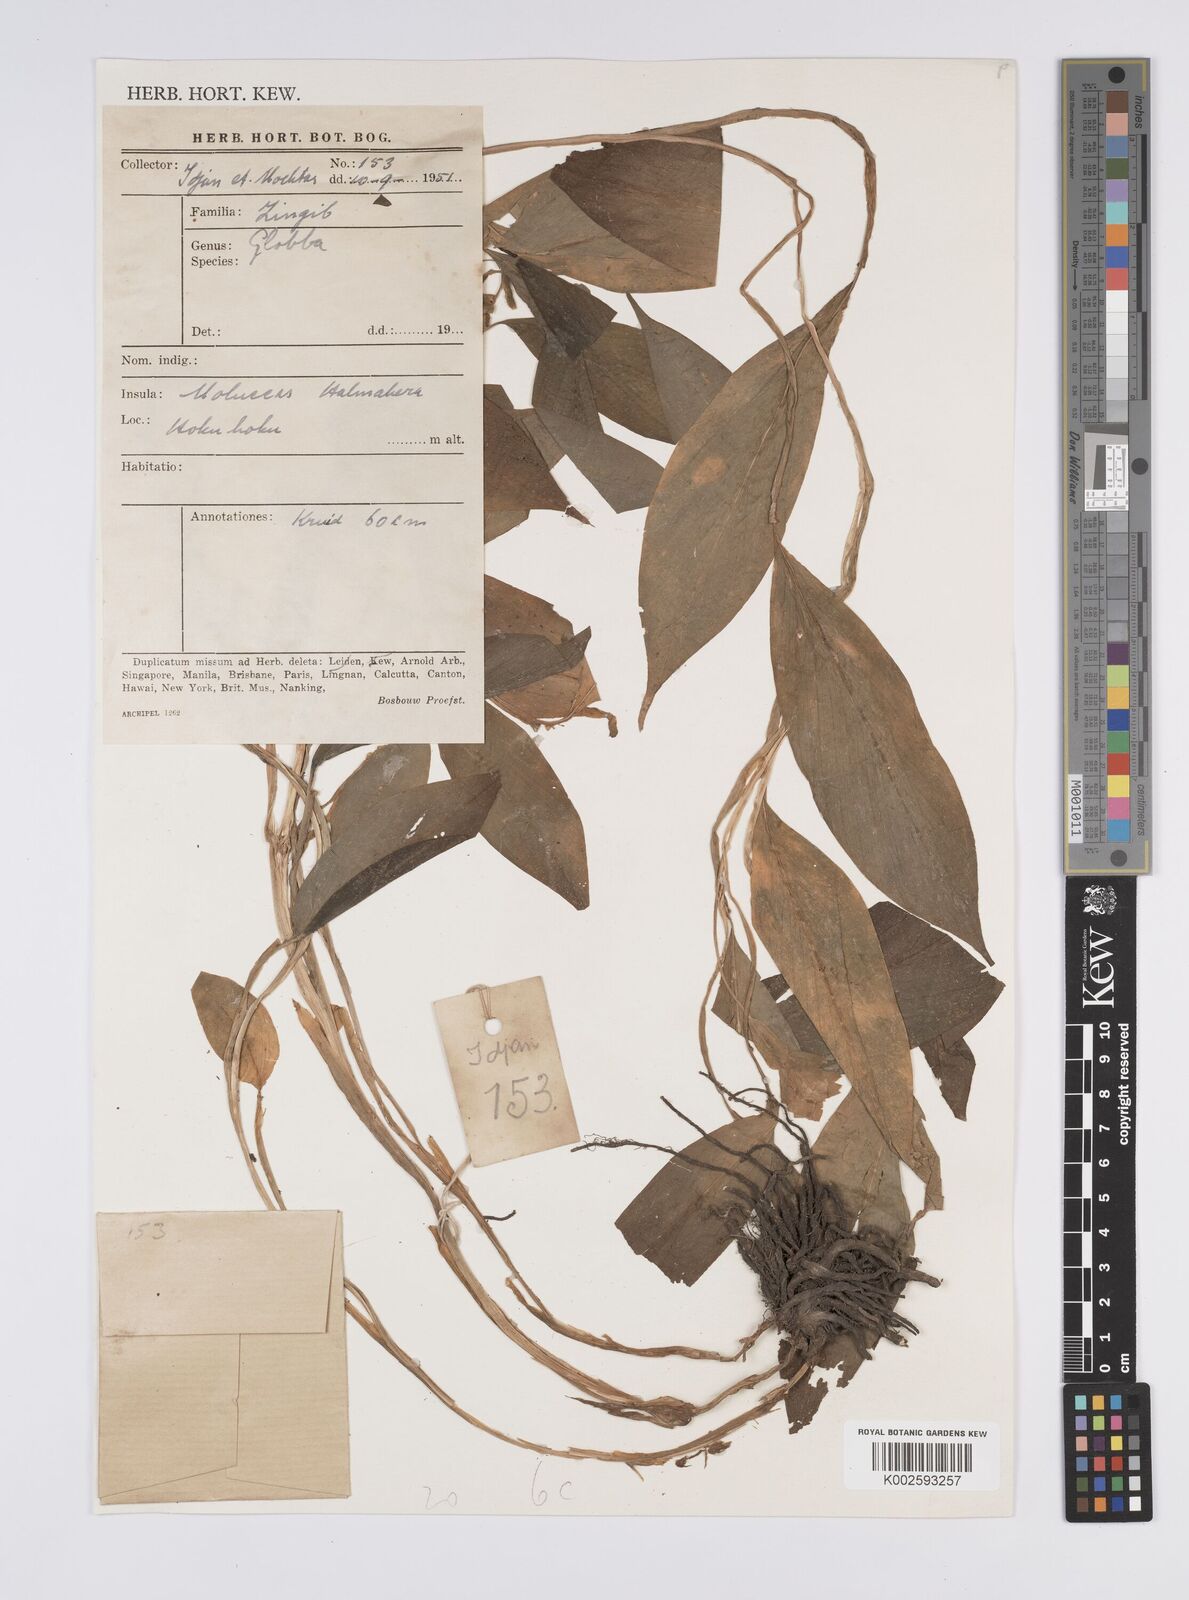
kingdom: Plantae
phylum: Tracheophyta
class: Liliopsida
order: Zingiberales
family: Zingiberaceae
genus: Globba
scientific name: Globba
